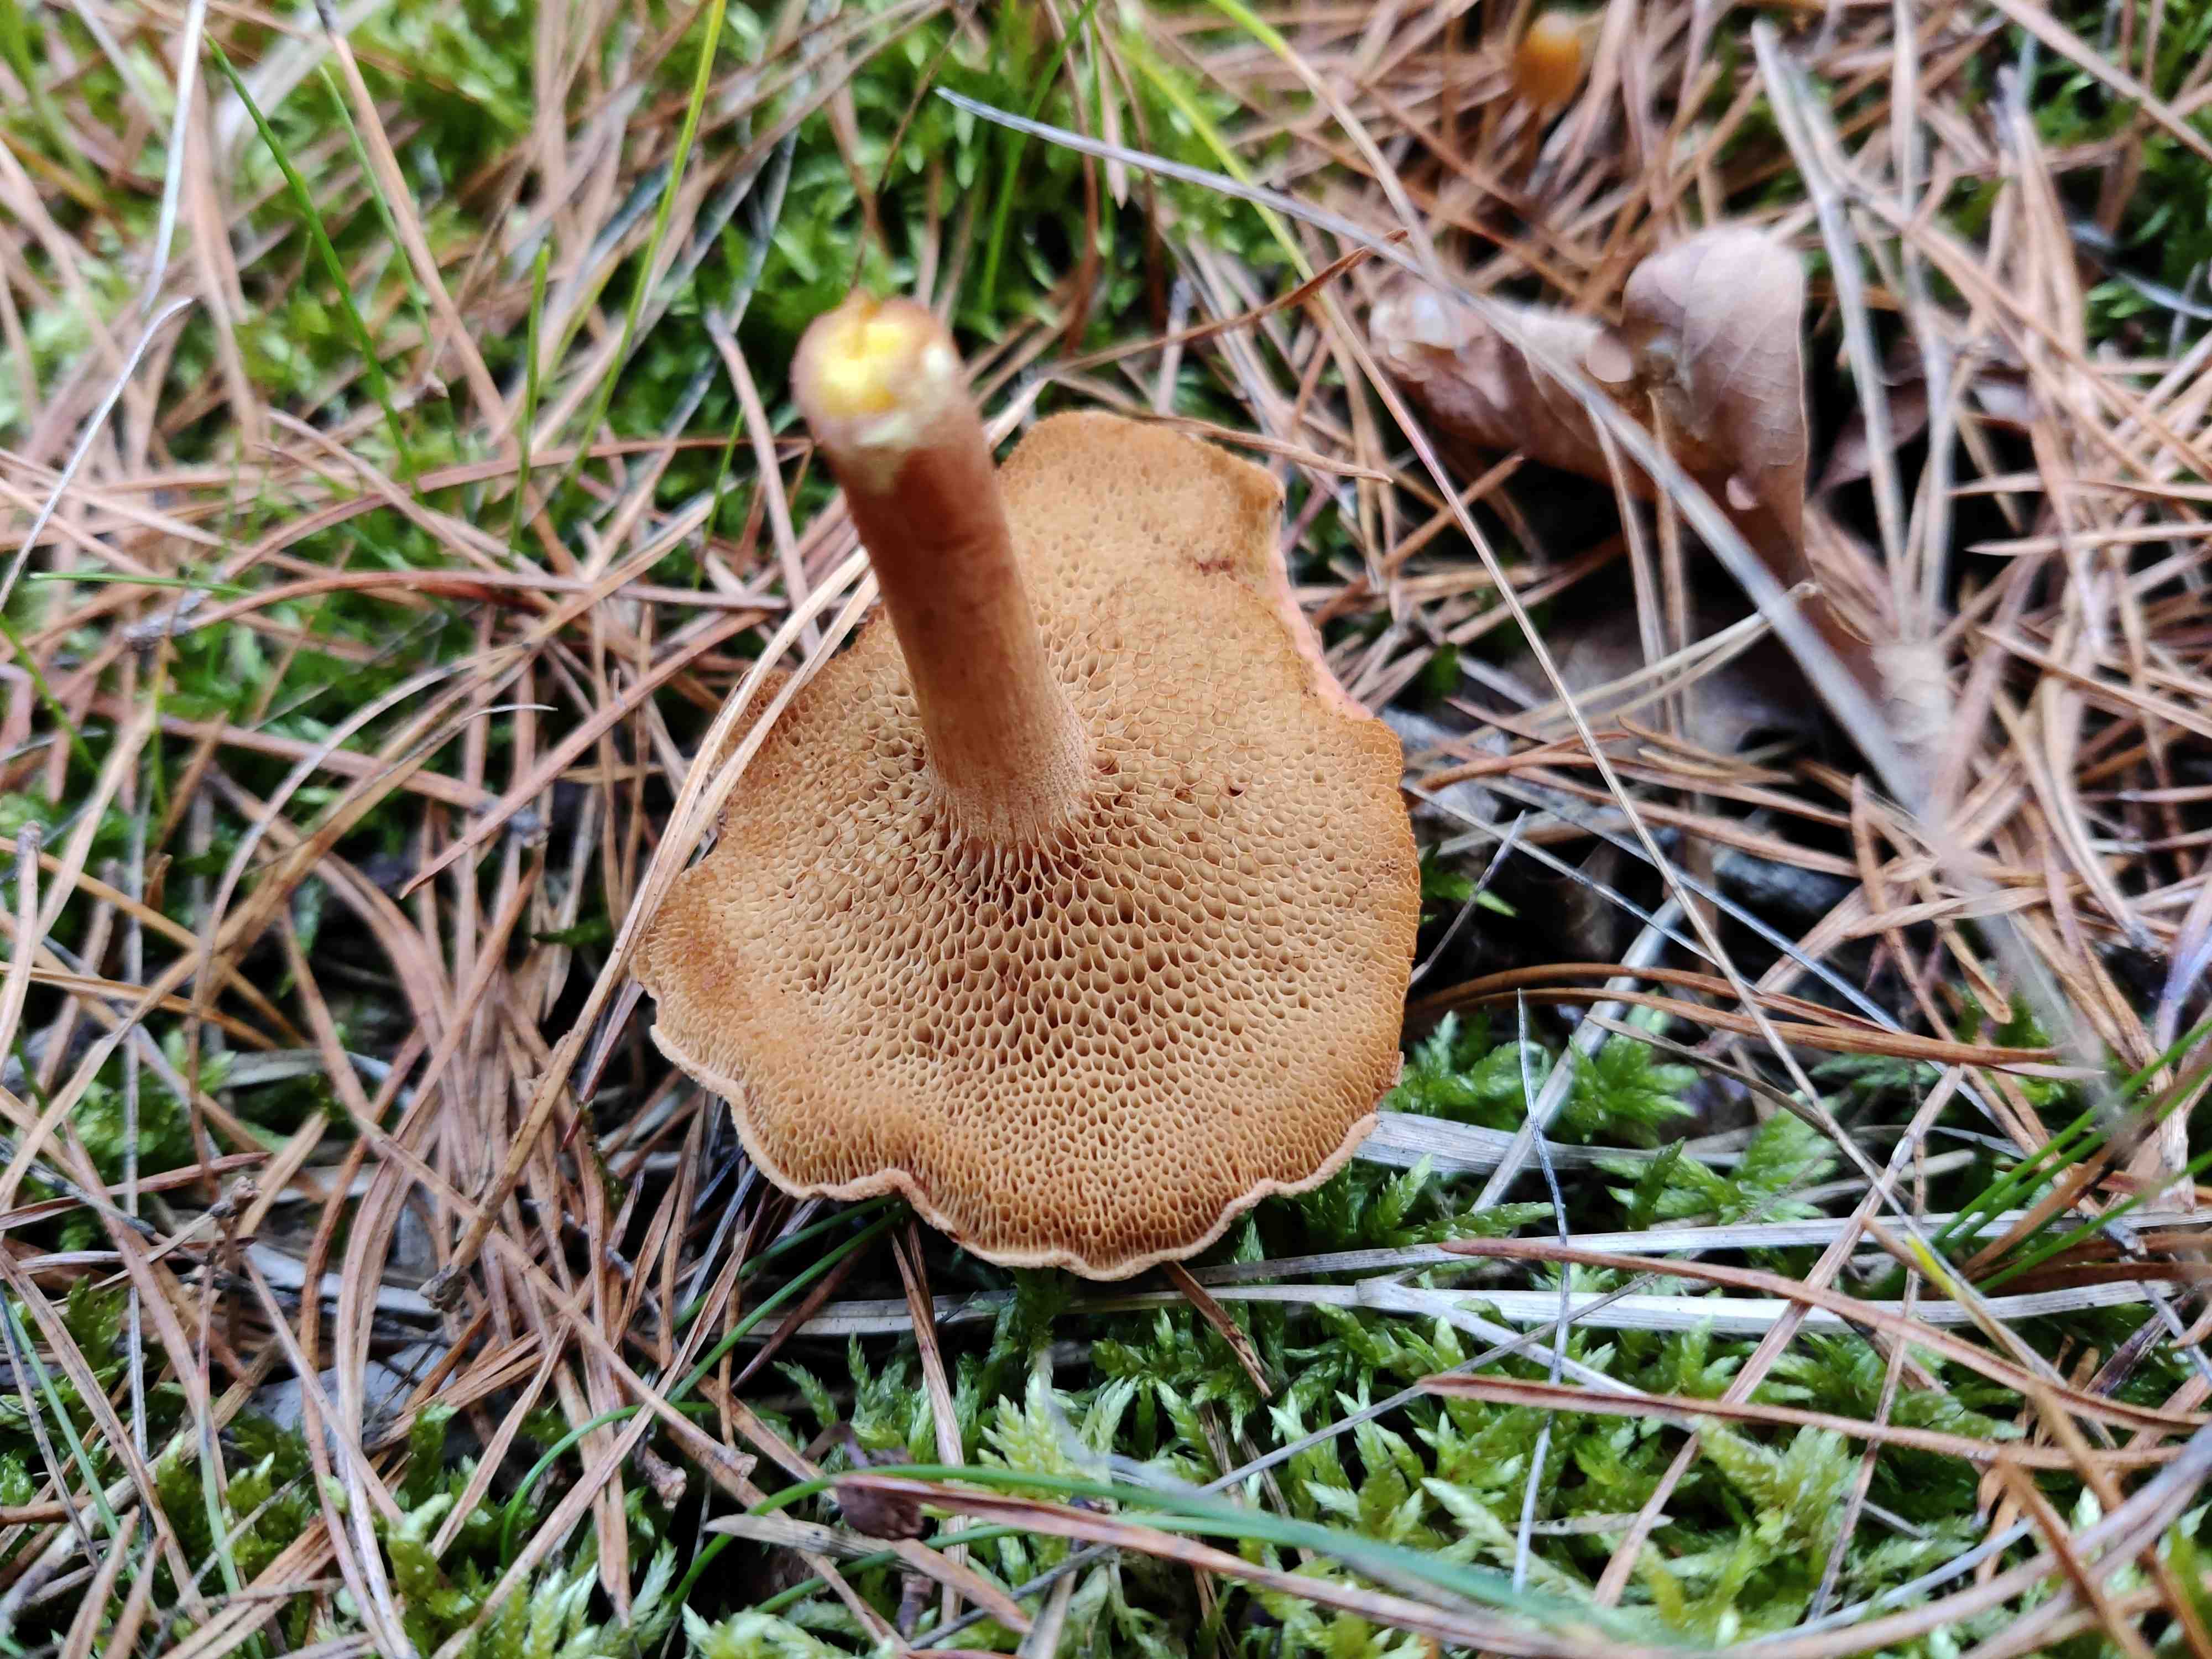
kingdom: Fungi
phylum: Basidiomycota
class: Agaricomycetes
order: Boletales
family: Boletaceae
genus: Chalciporus
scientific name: Chalciporus piperatus
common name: peberrørhat
